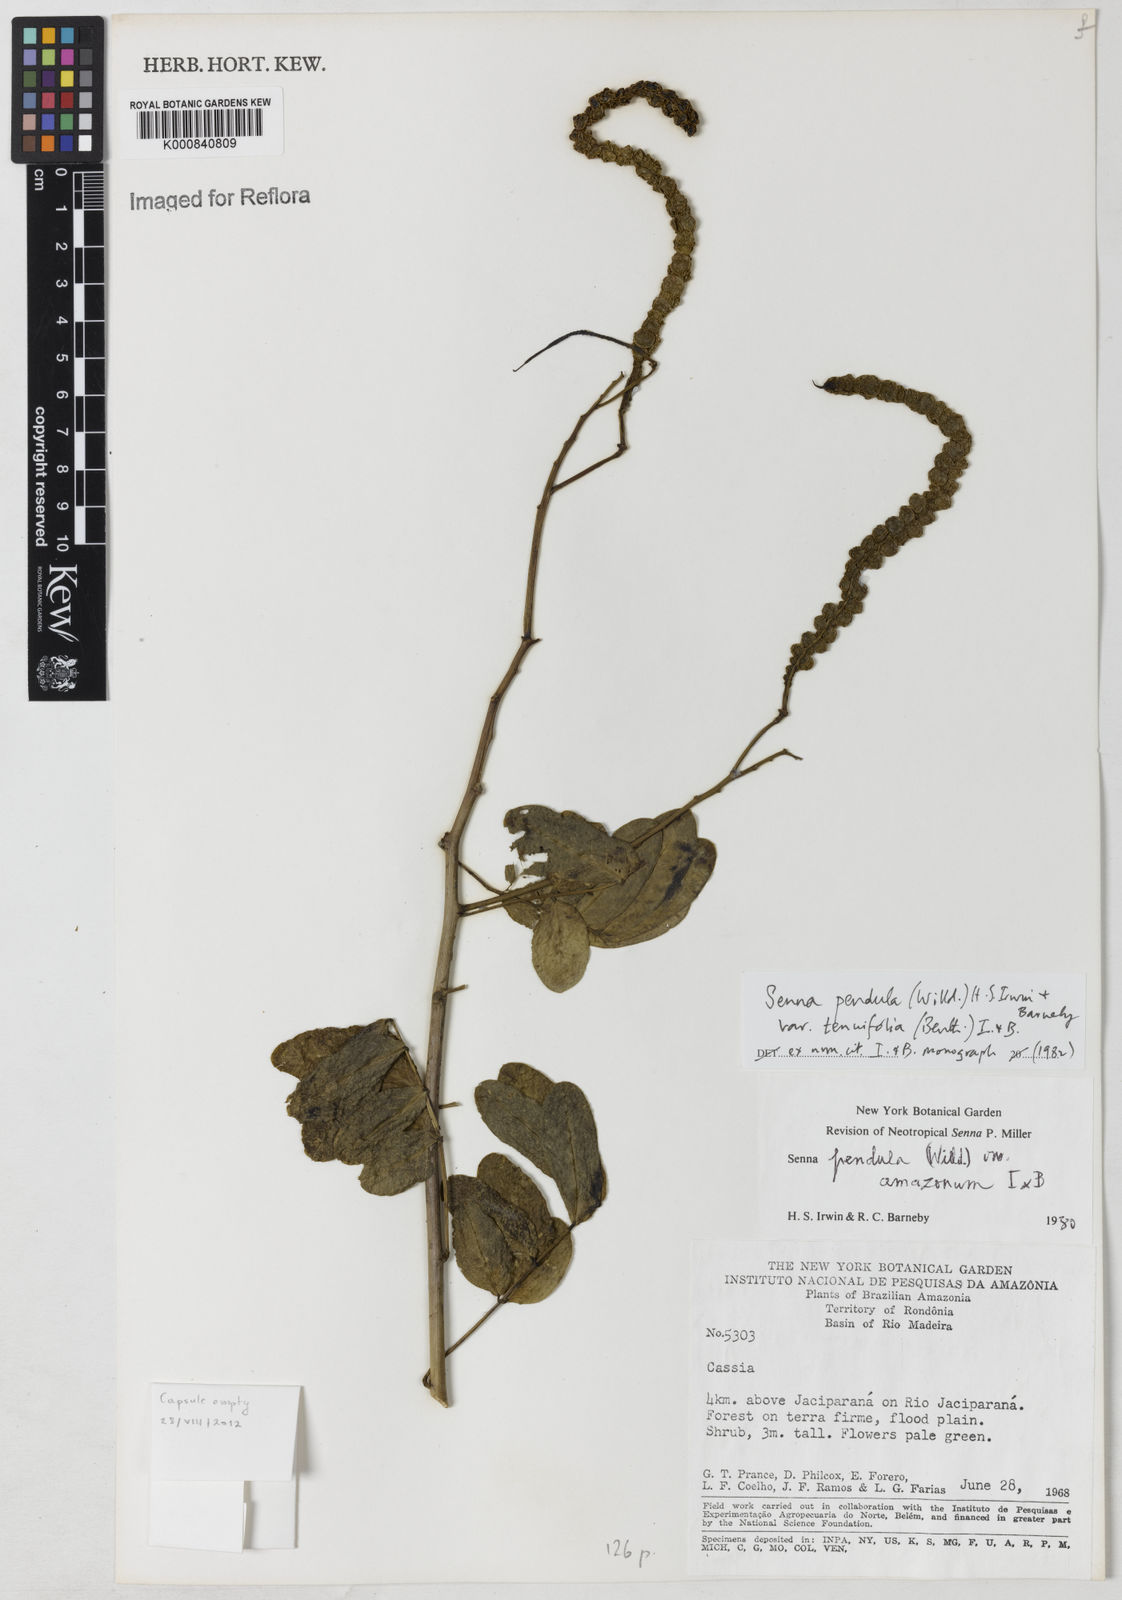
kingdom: Plantae
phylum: Tracheophyta
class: Magnoliopsida
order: Fabales
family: Fabaceae
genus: Senna
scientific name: Senna pendula
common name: Easter cassia
